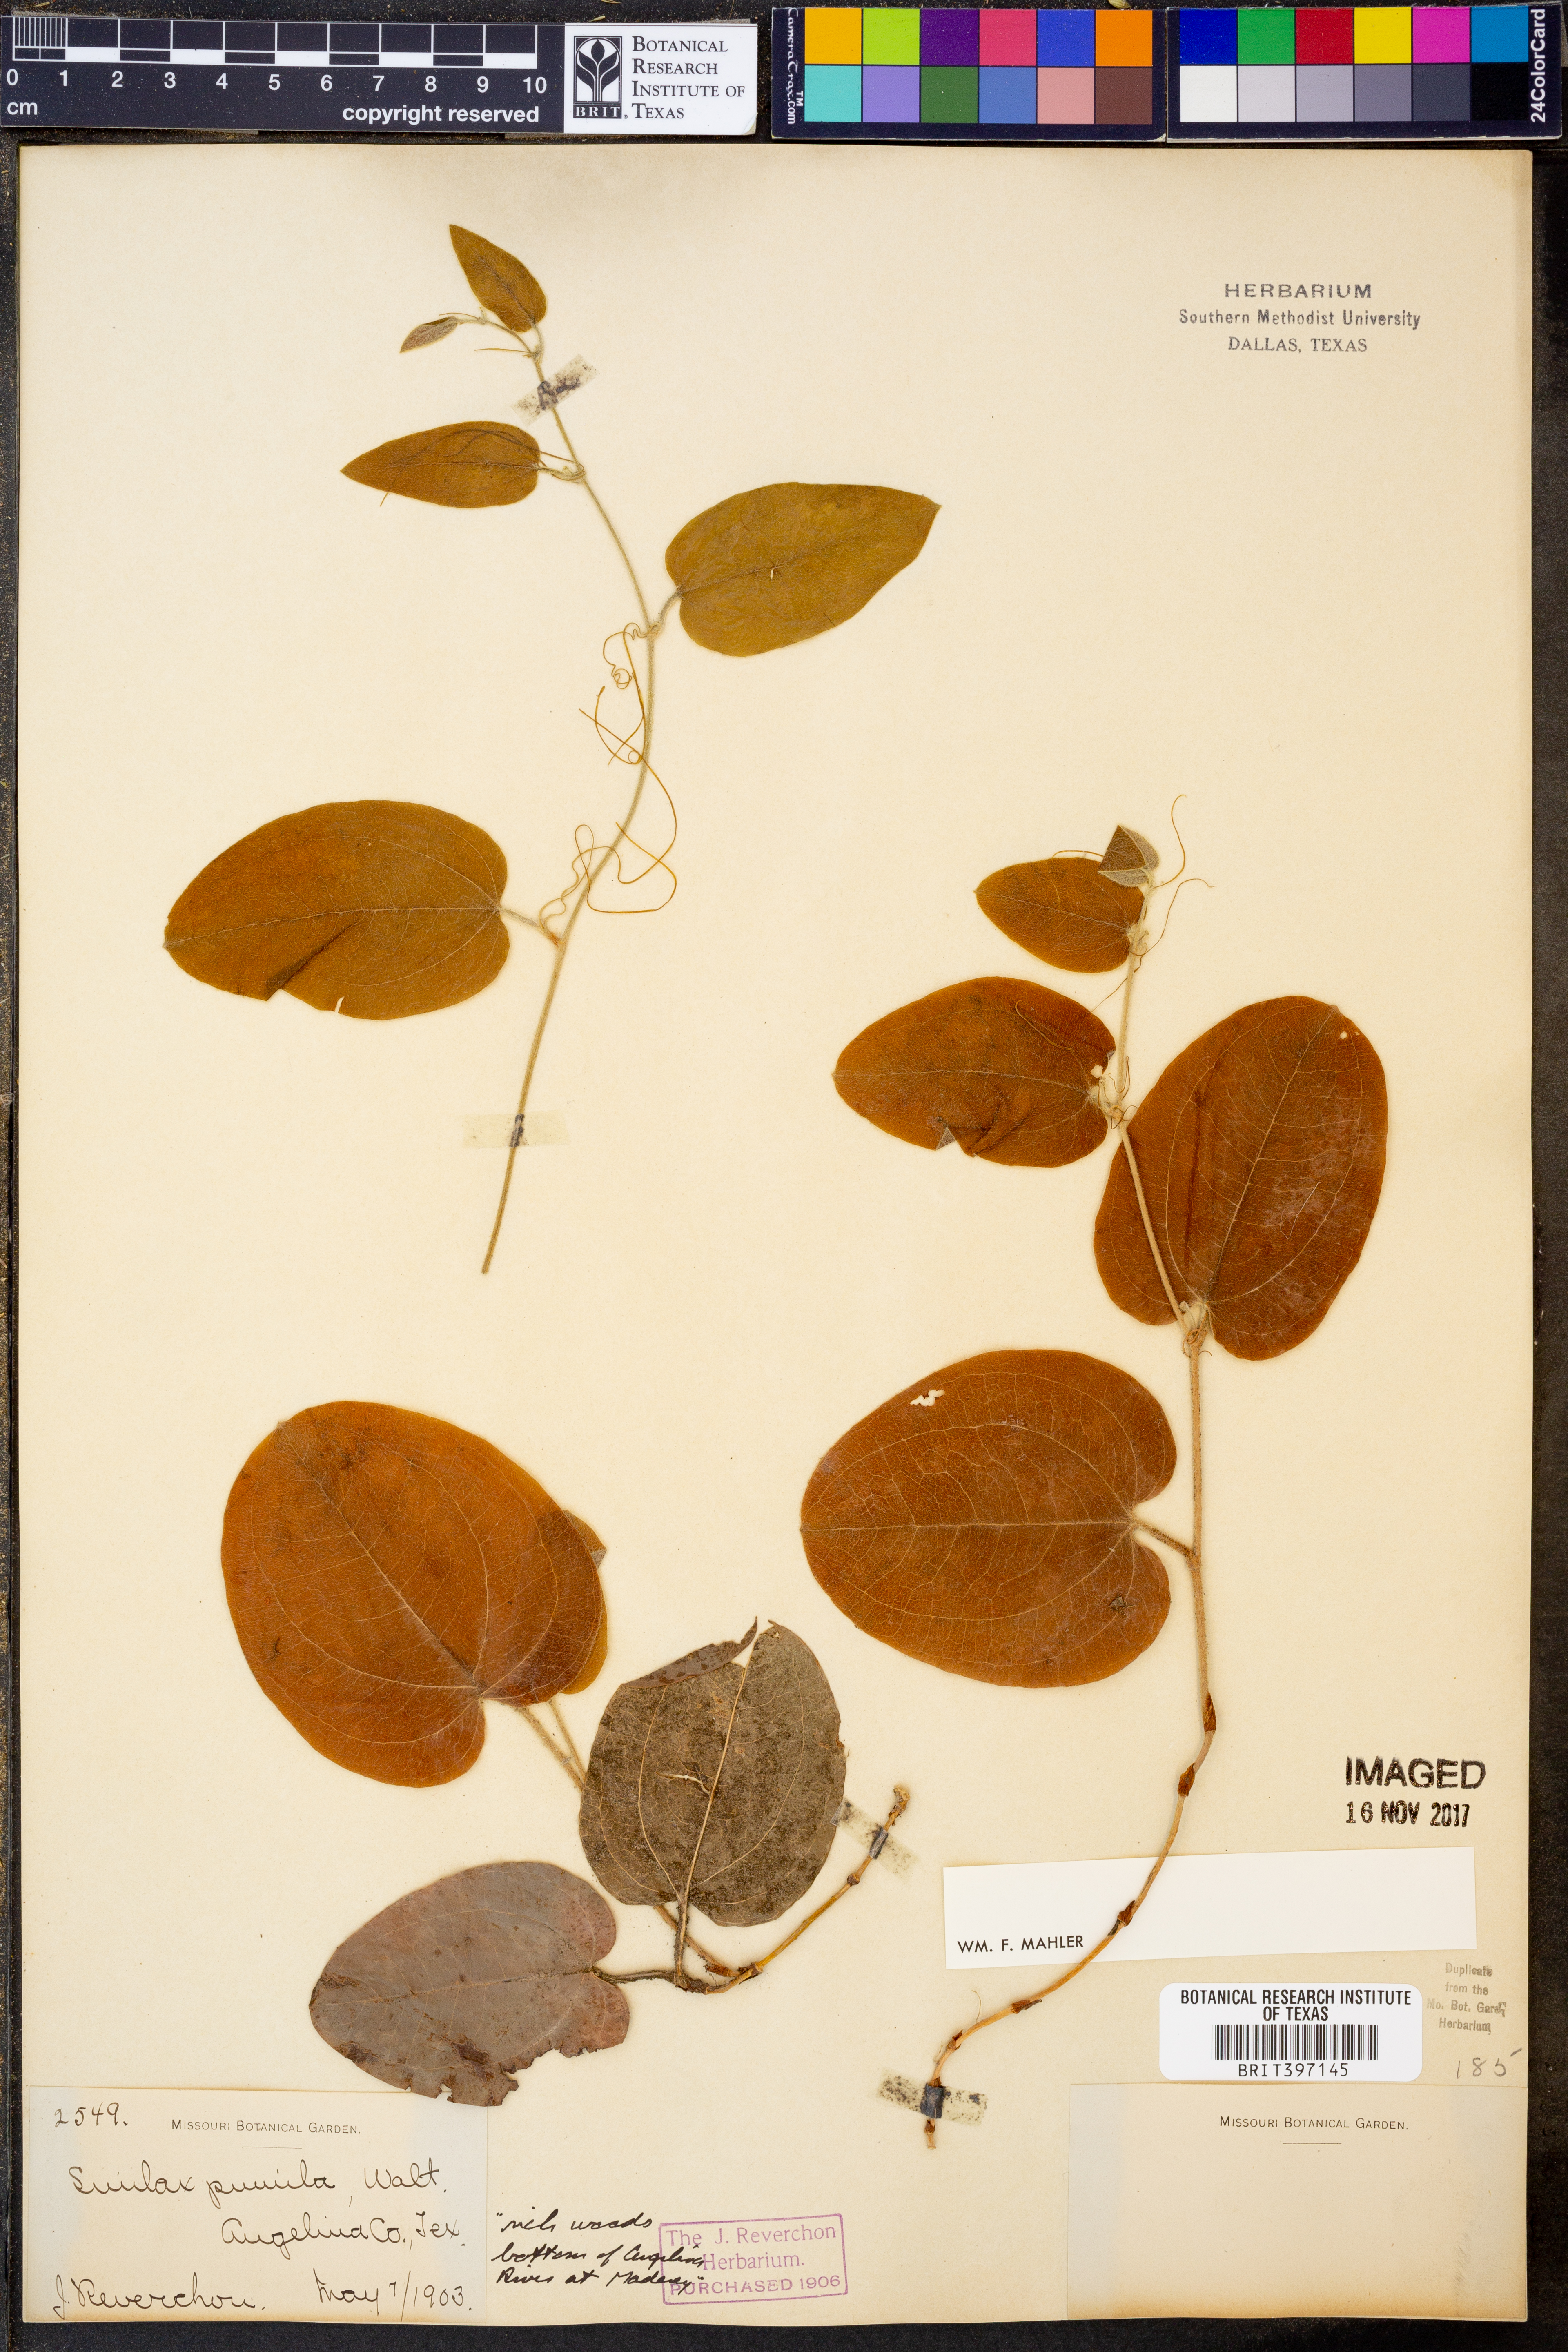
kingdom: Plantae
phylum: Tracheophyta
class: Liliopsida
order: Liliales
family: Smilacaceae
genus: Smilax
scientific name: Smilax pumila
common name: Sarsaparilla-vine
